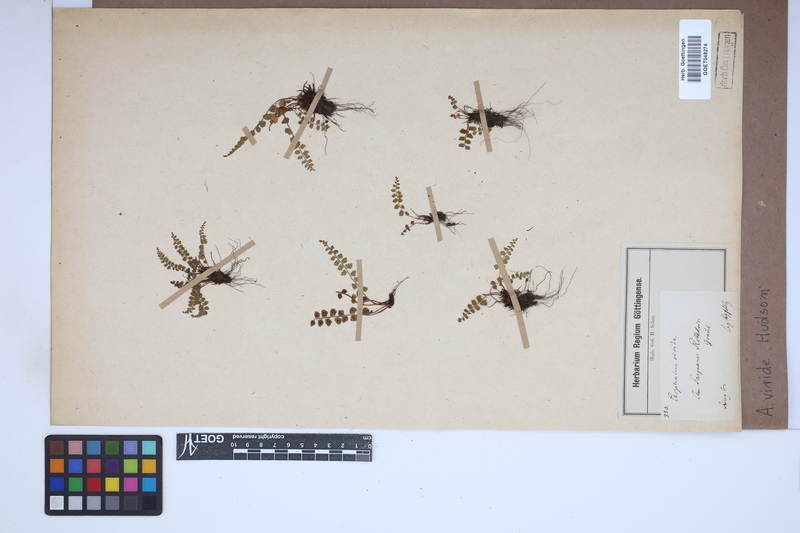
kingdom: Plantae
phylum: Tracheophyta
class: Polypodiopsida
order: Polypodiales
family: Aspleniaceae
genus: Asplenium
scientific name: Asplenium viride
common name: Green spleenwort
